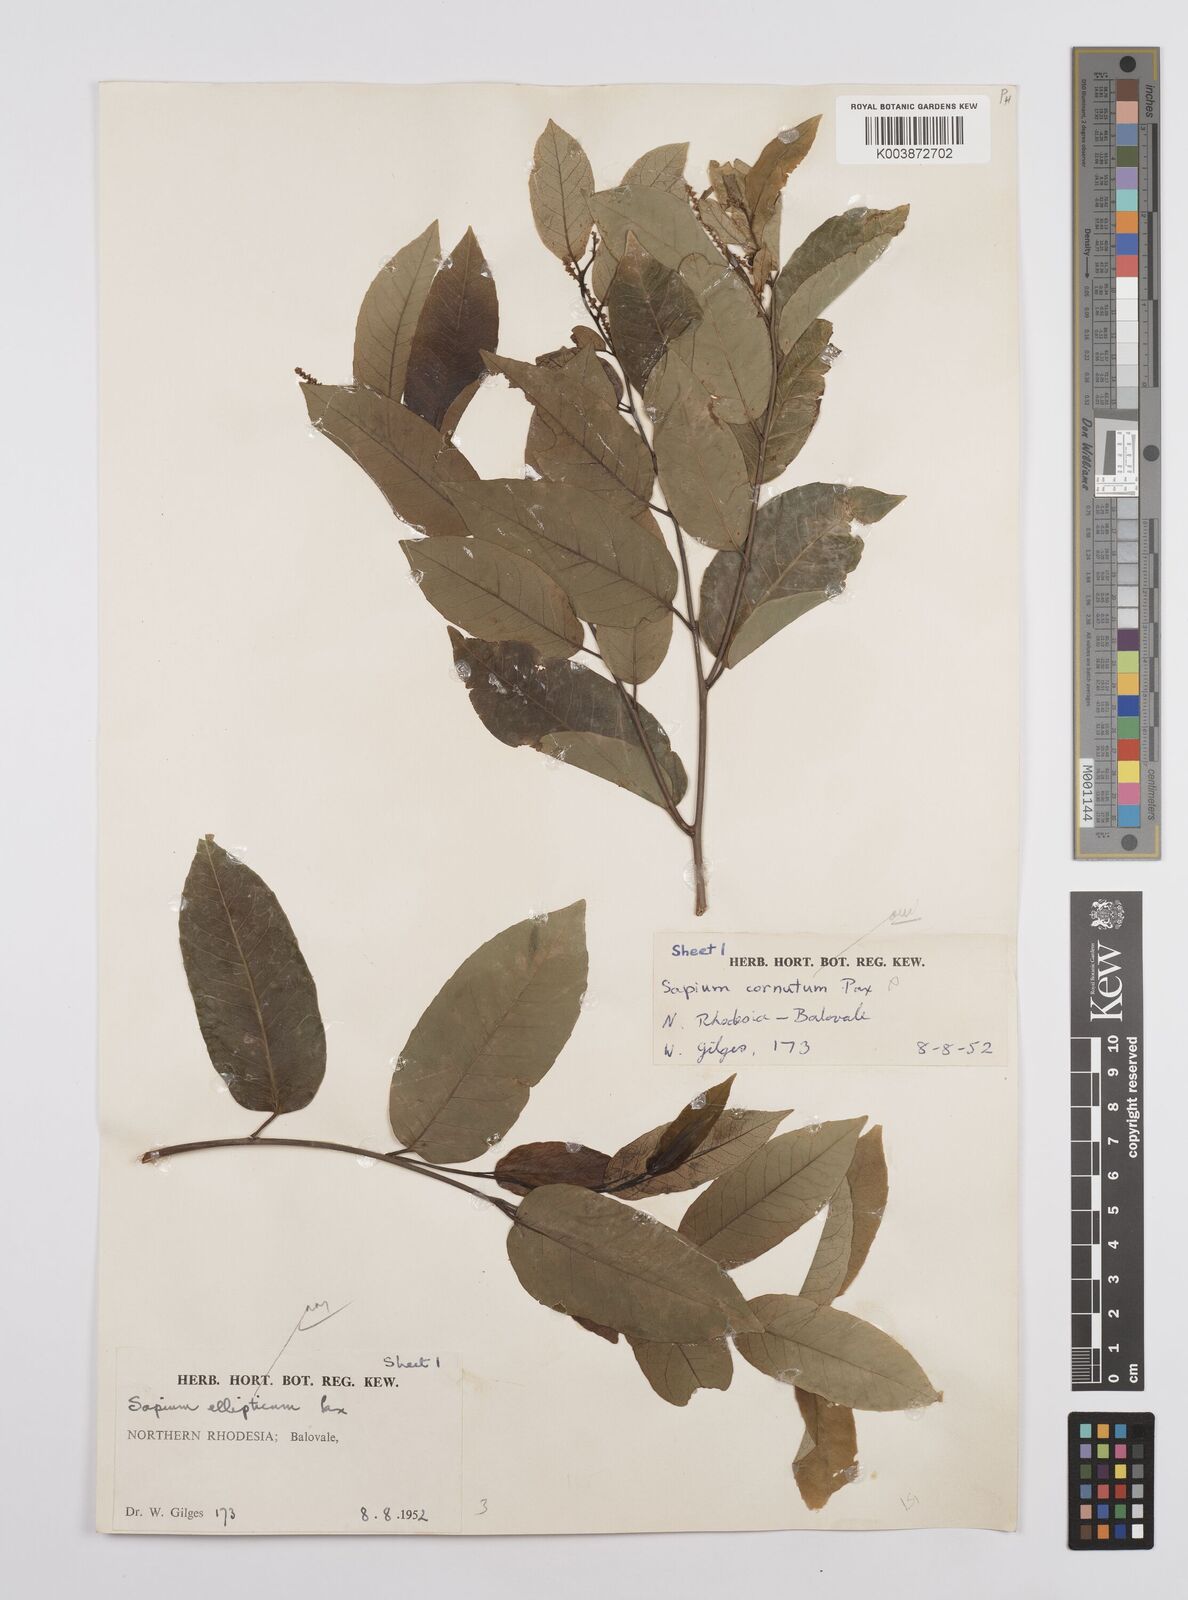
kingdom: Plantae
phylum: Tracheophyta
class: Magnoliopsida
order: Malpighiales
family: Euphorbiaceae
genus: Sclerocroton
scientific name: Sclerocroton cornutus
